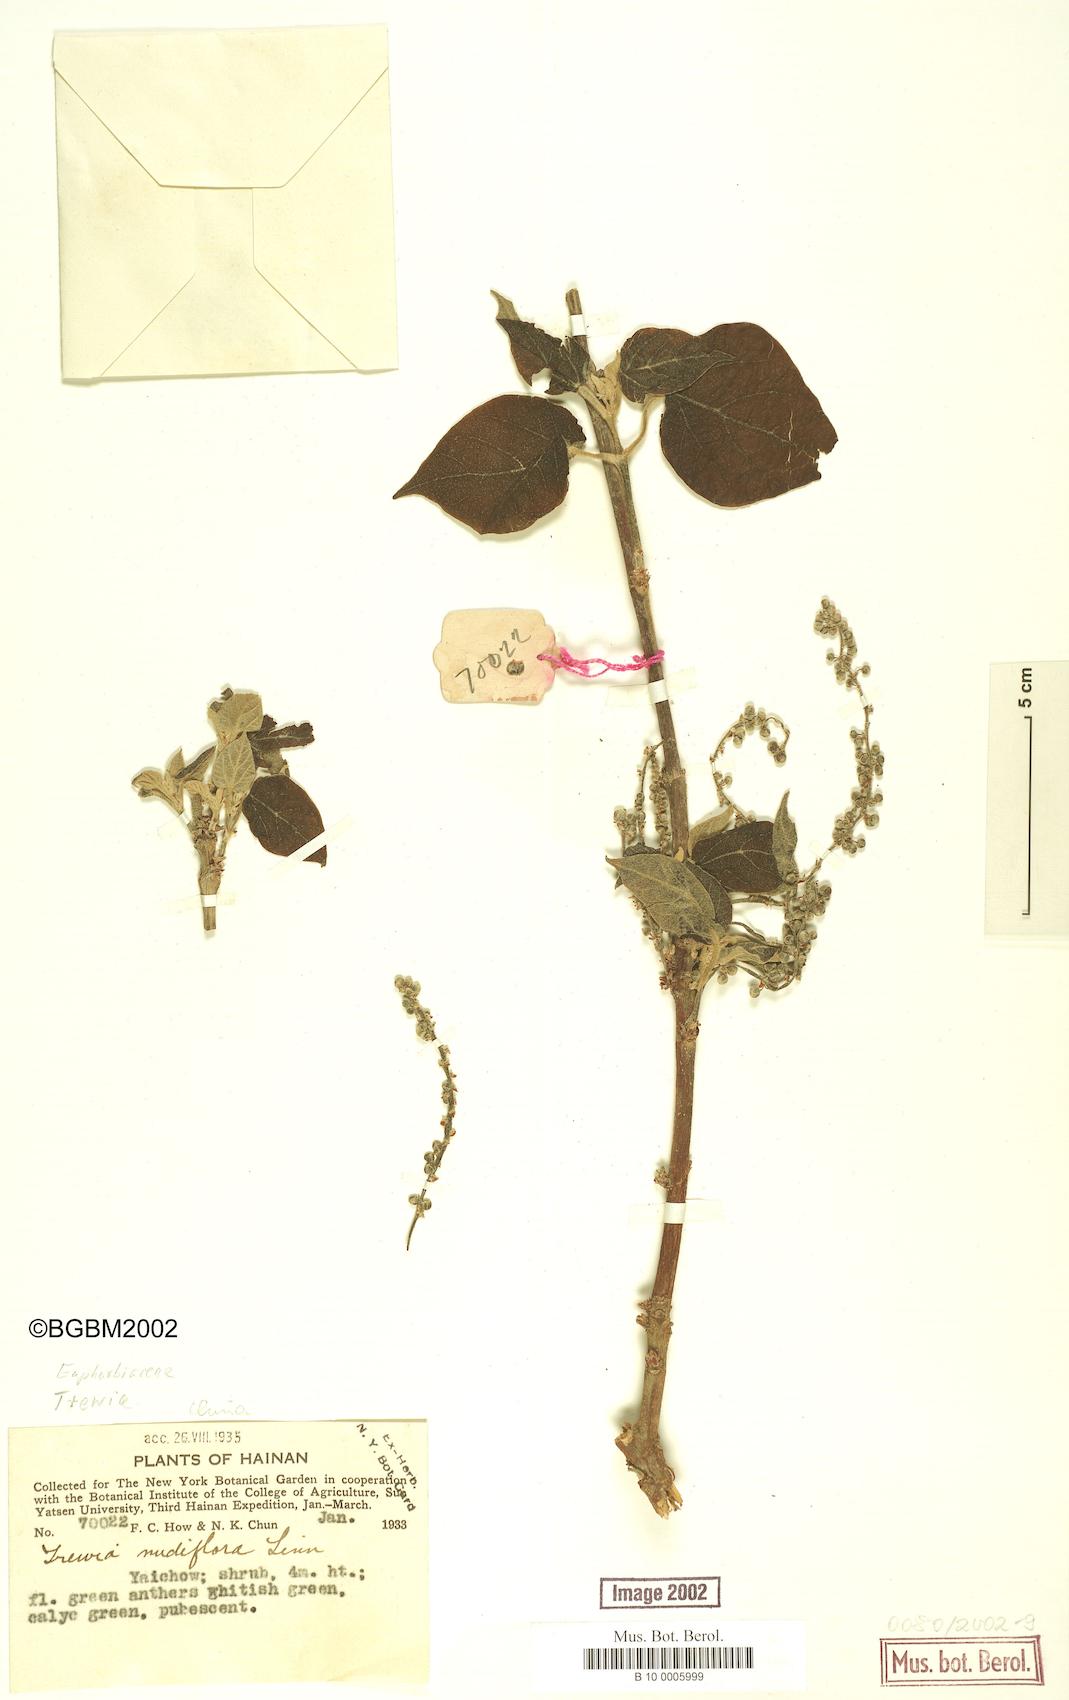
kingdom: Plantae
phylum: Tracheophyta
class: Magnoliopsida
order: Malpighiales
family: Euphorbiaceae
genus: Trewia
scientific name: Trewia nudiflora
